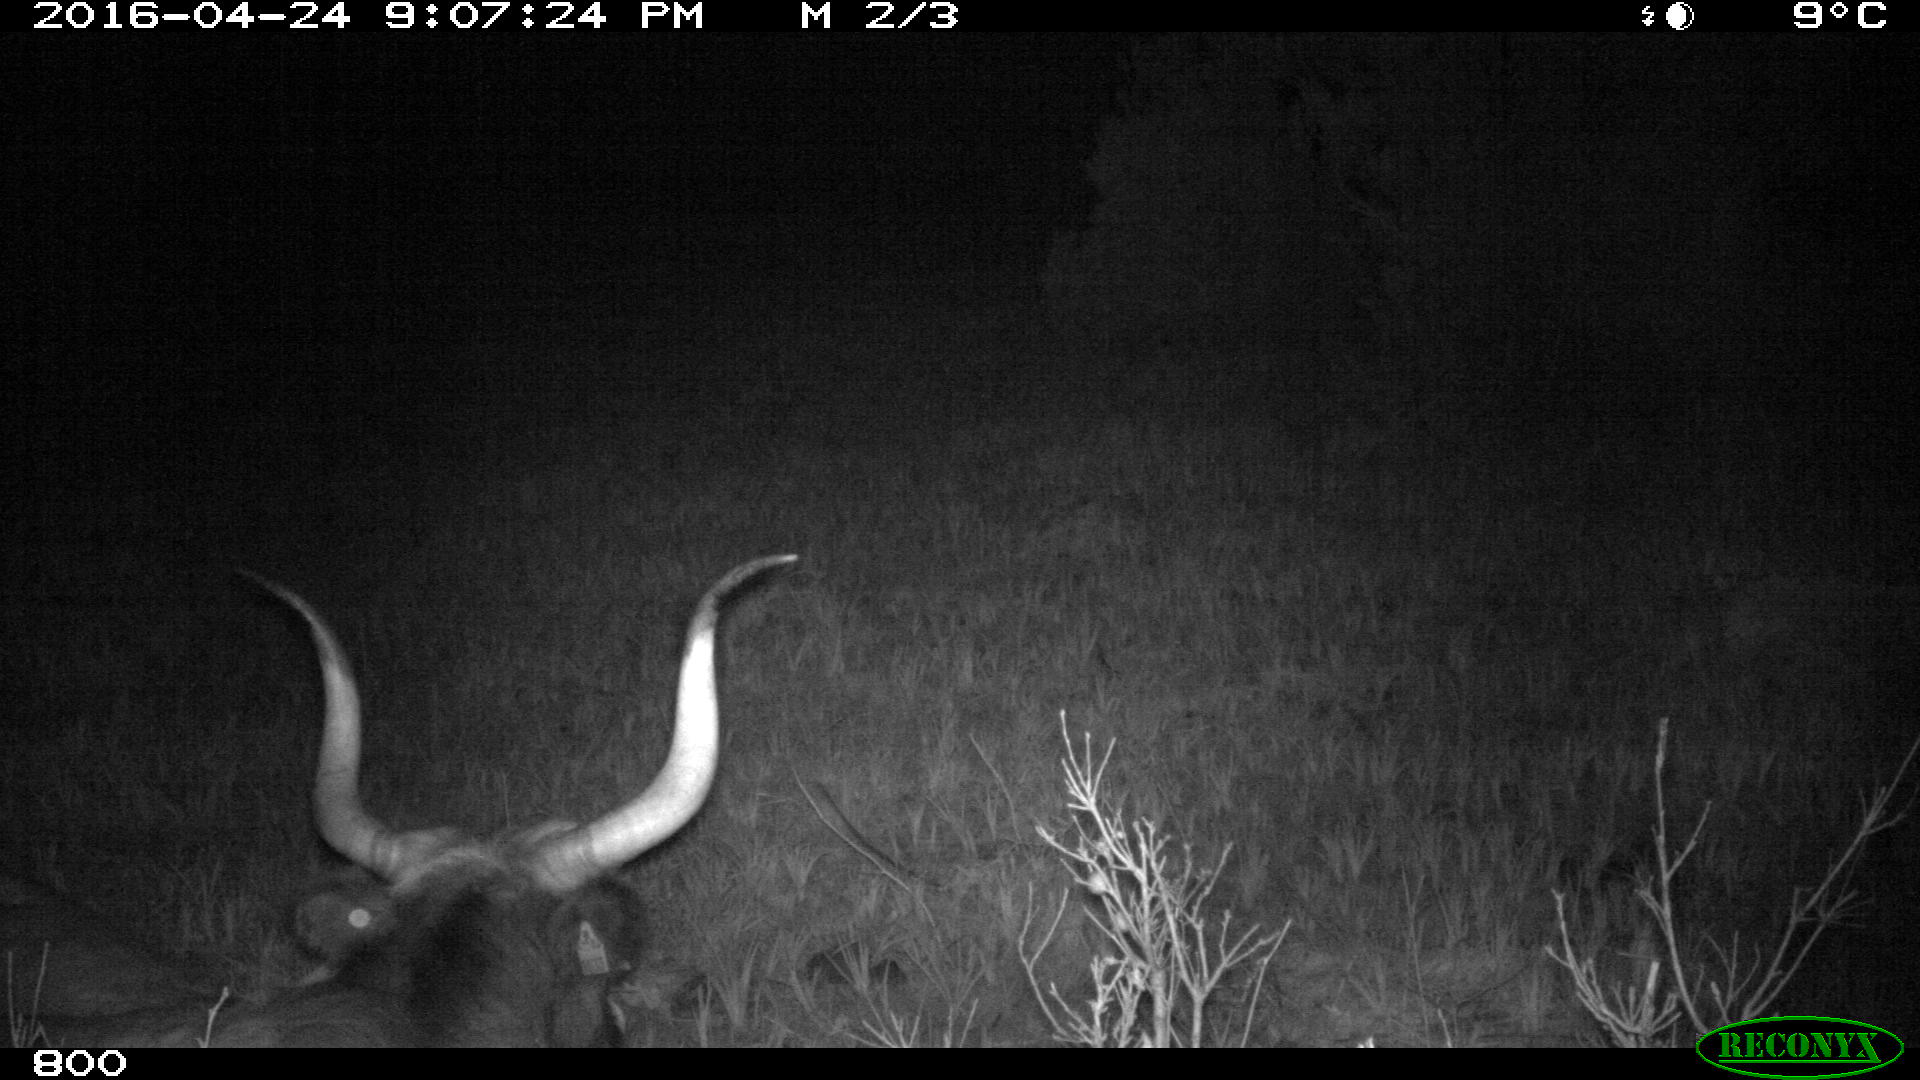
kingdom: Animalia
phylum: Chordata
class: Mammalia
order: Artiodactyla
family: Bovidae
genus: Bos
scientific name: Bos taurus
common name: Domesticated cattle
